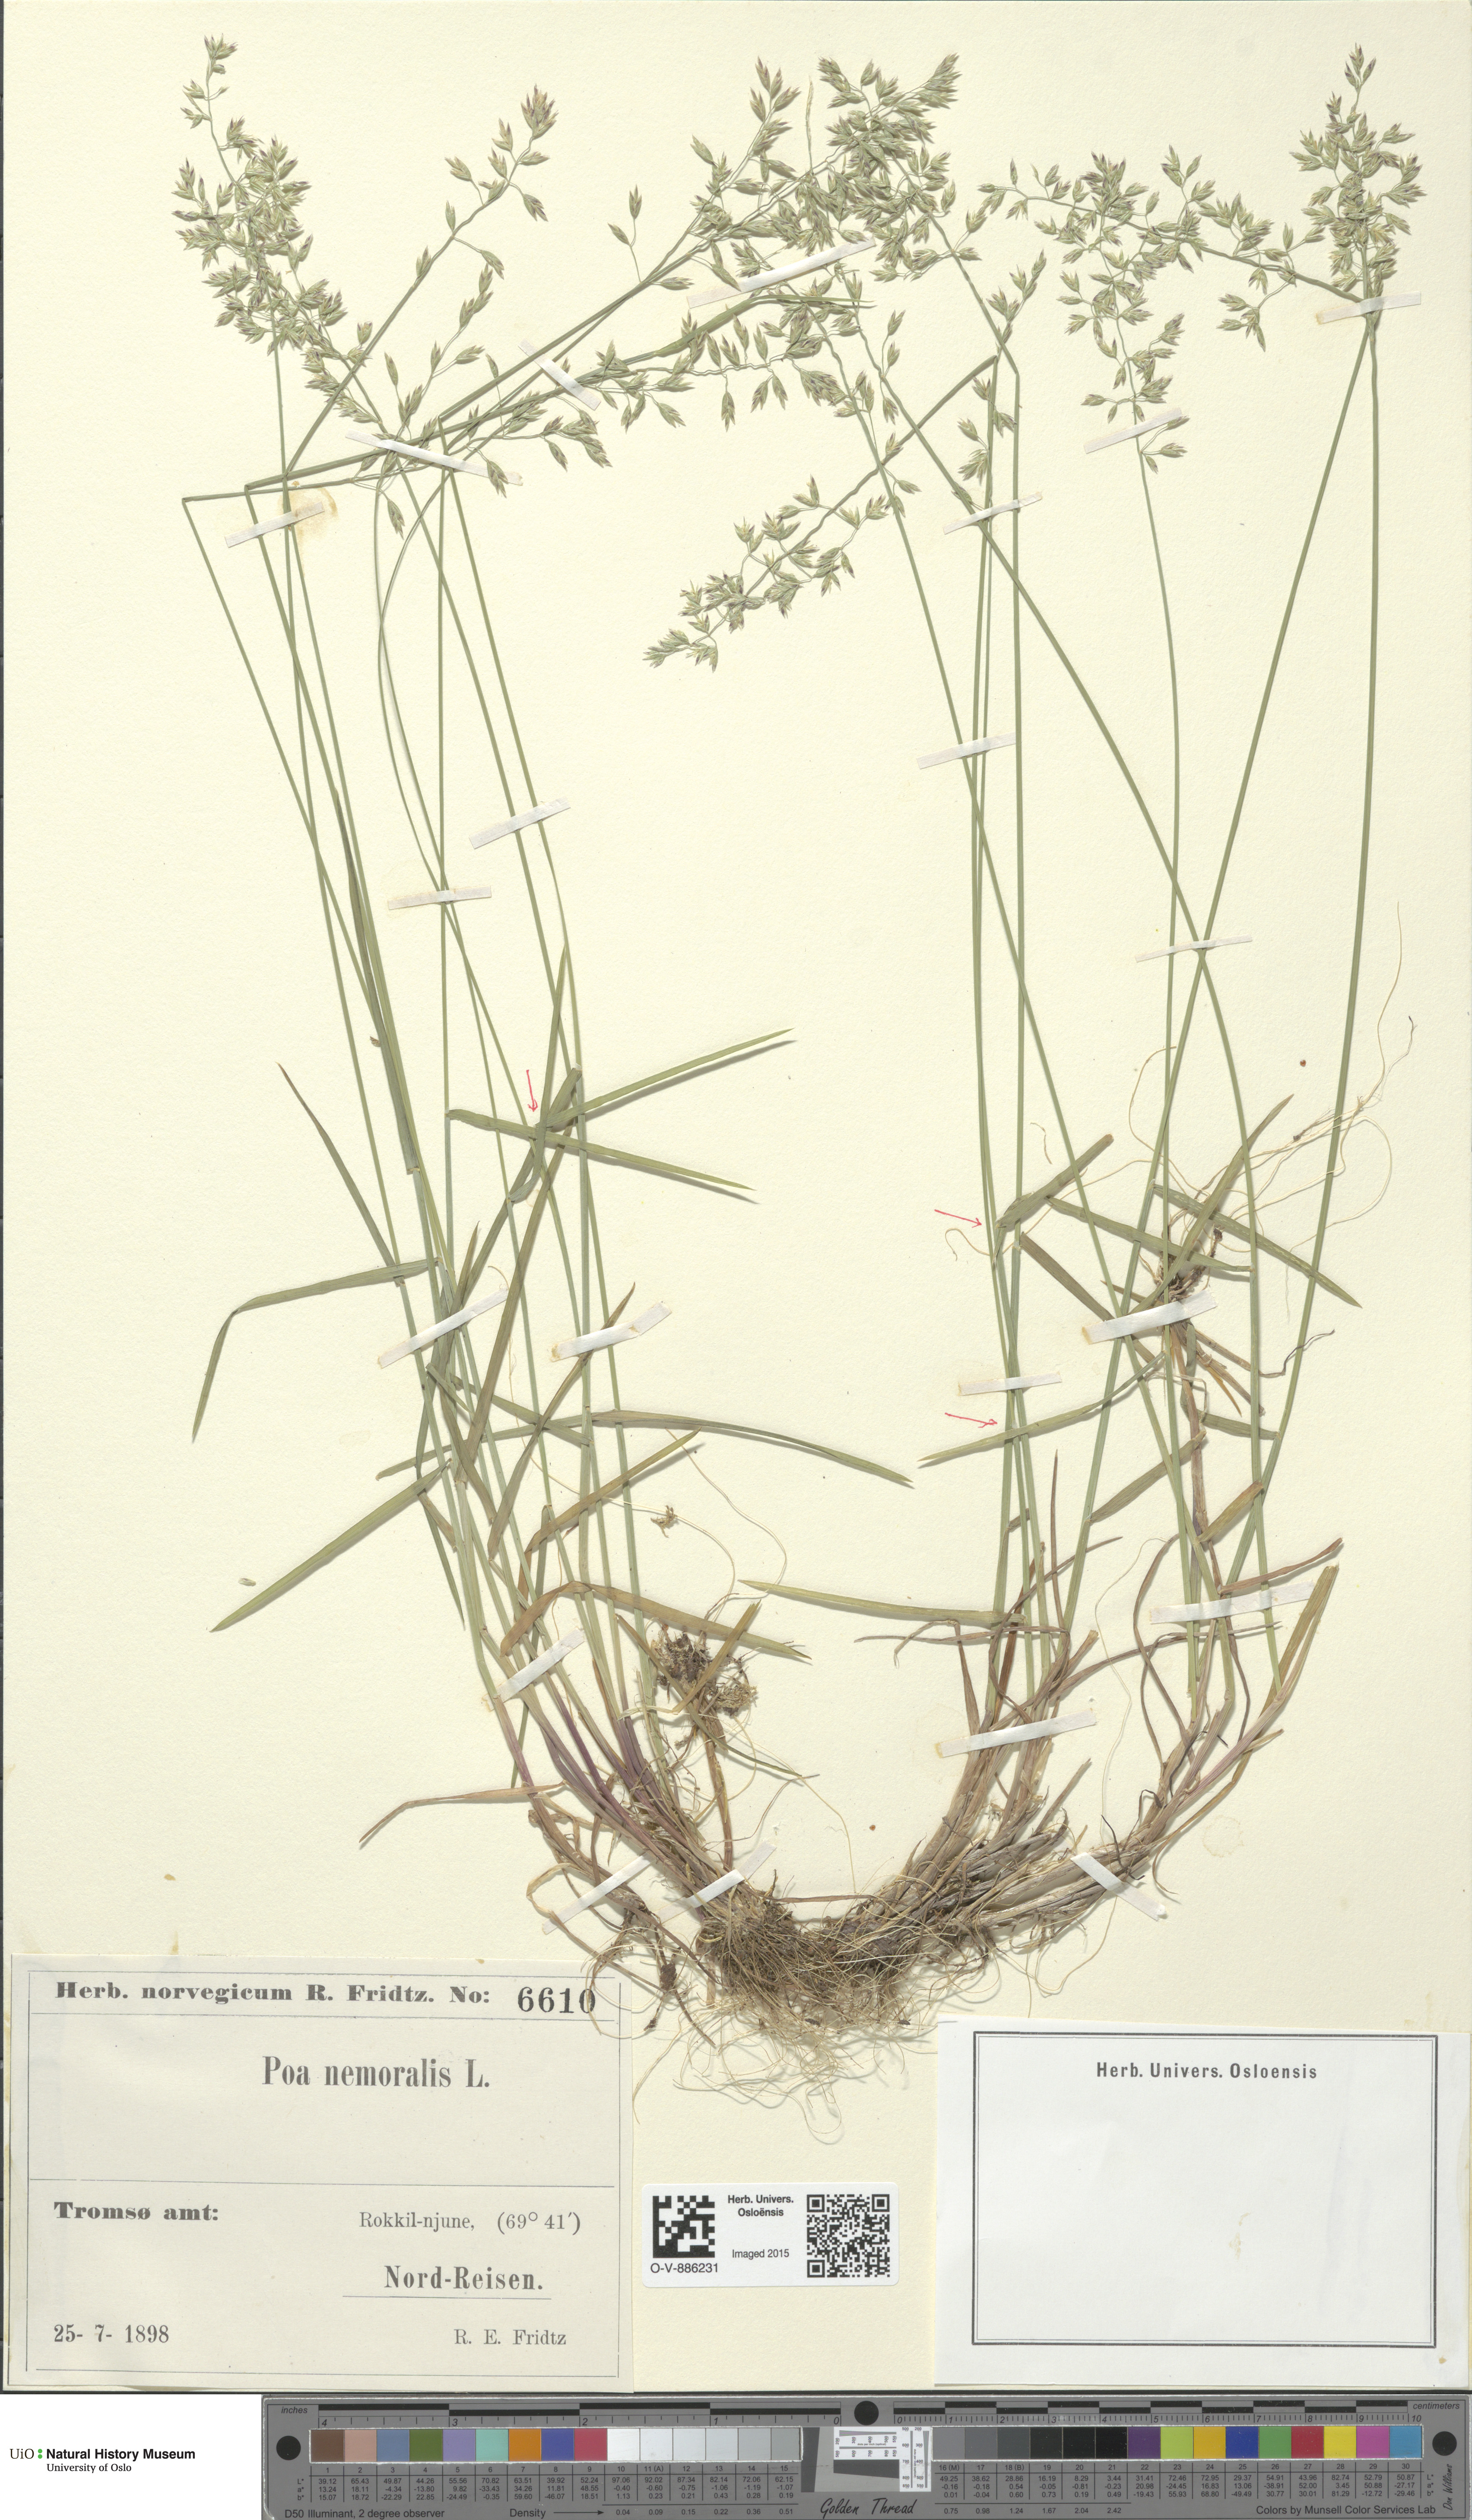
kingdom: Plantae
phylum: Tracheophyta
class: Liliopsida
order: Poales
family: Poaceae
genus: Poa
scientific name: Poa nemoralis
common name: Wood bluegrass
